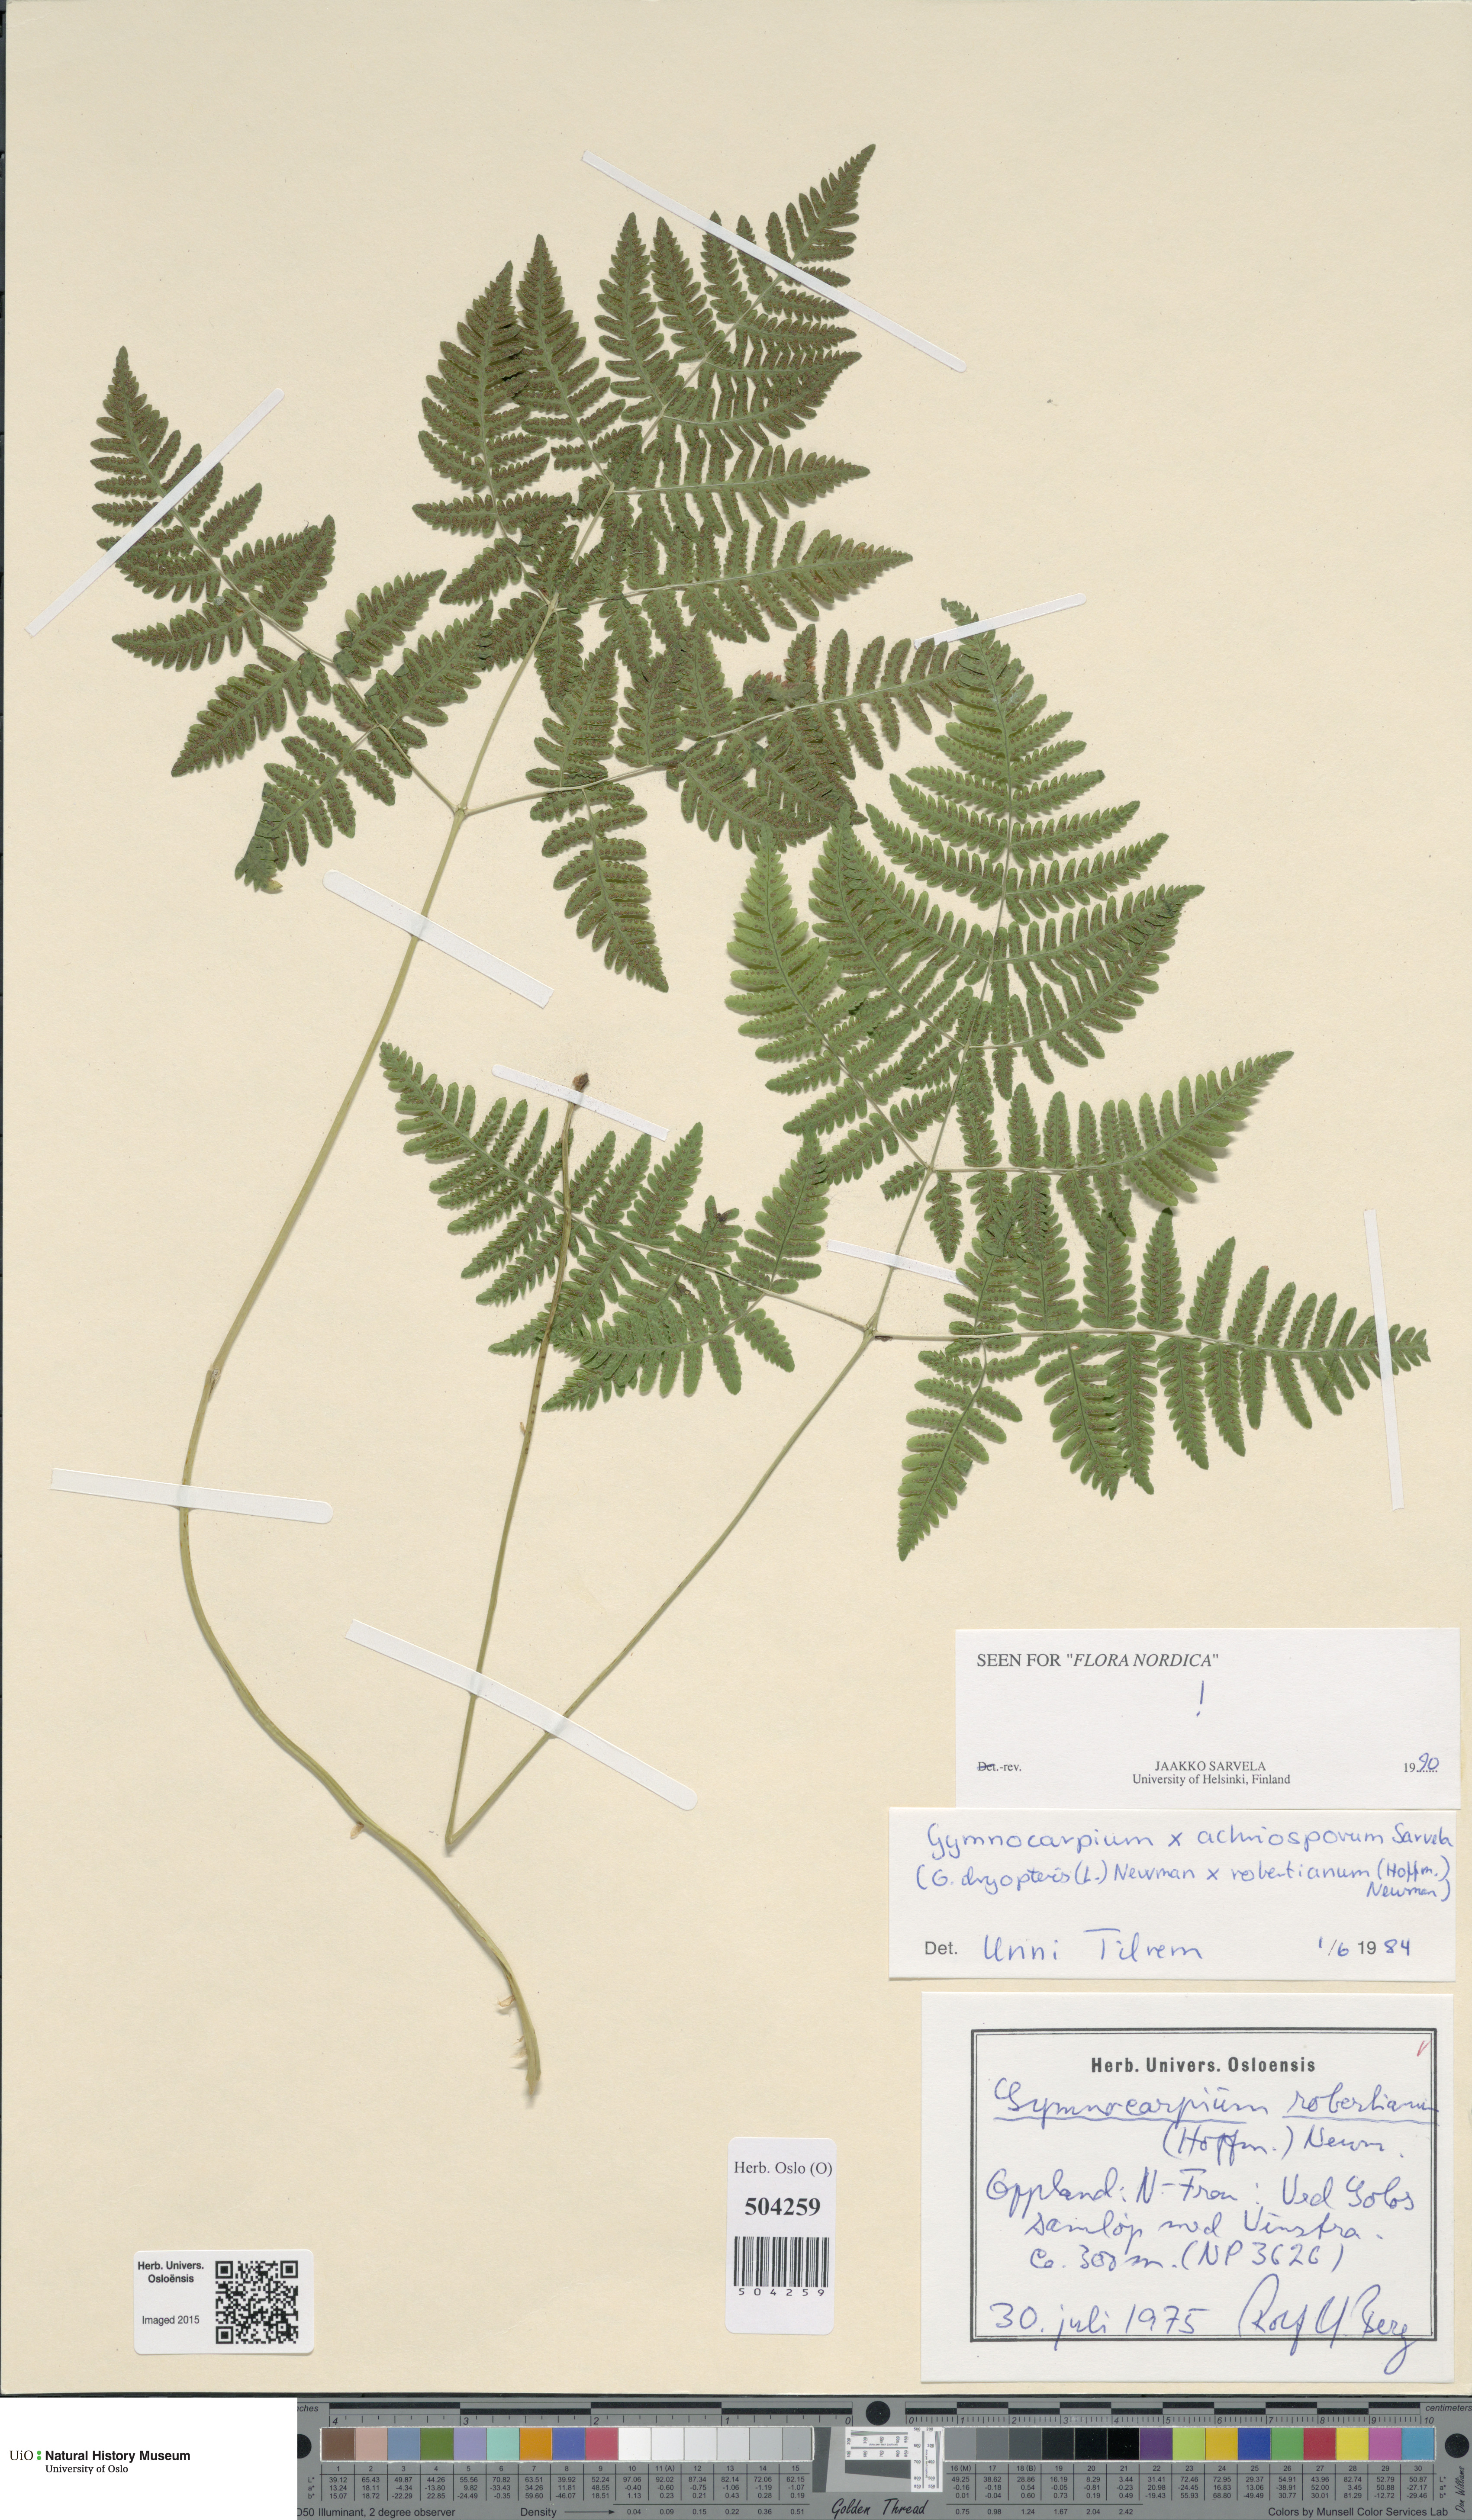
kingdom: Plantae
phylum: Tracheophyta
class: Polypodiopsida
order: Polypodiales
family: Cystopteridaceae
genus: Gymnocarpium
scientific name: Gymnocarpium
